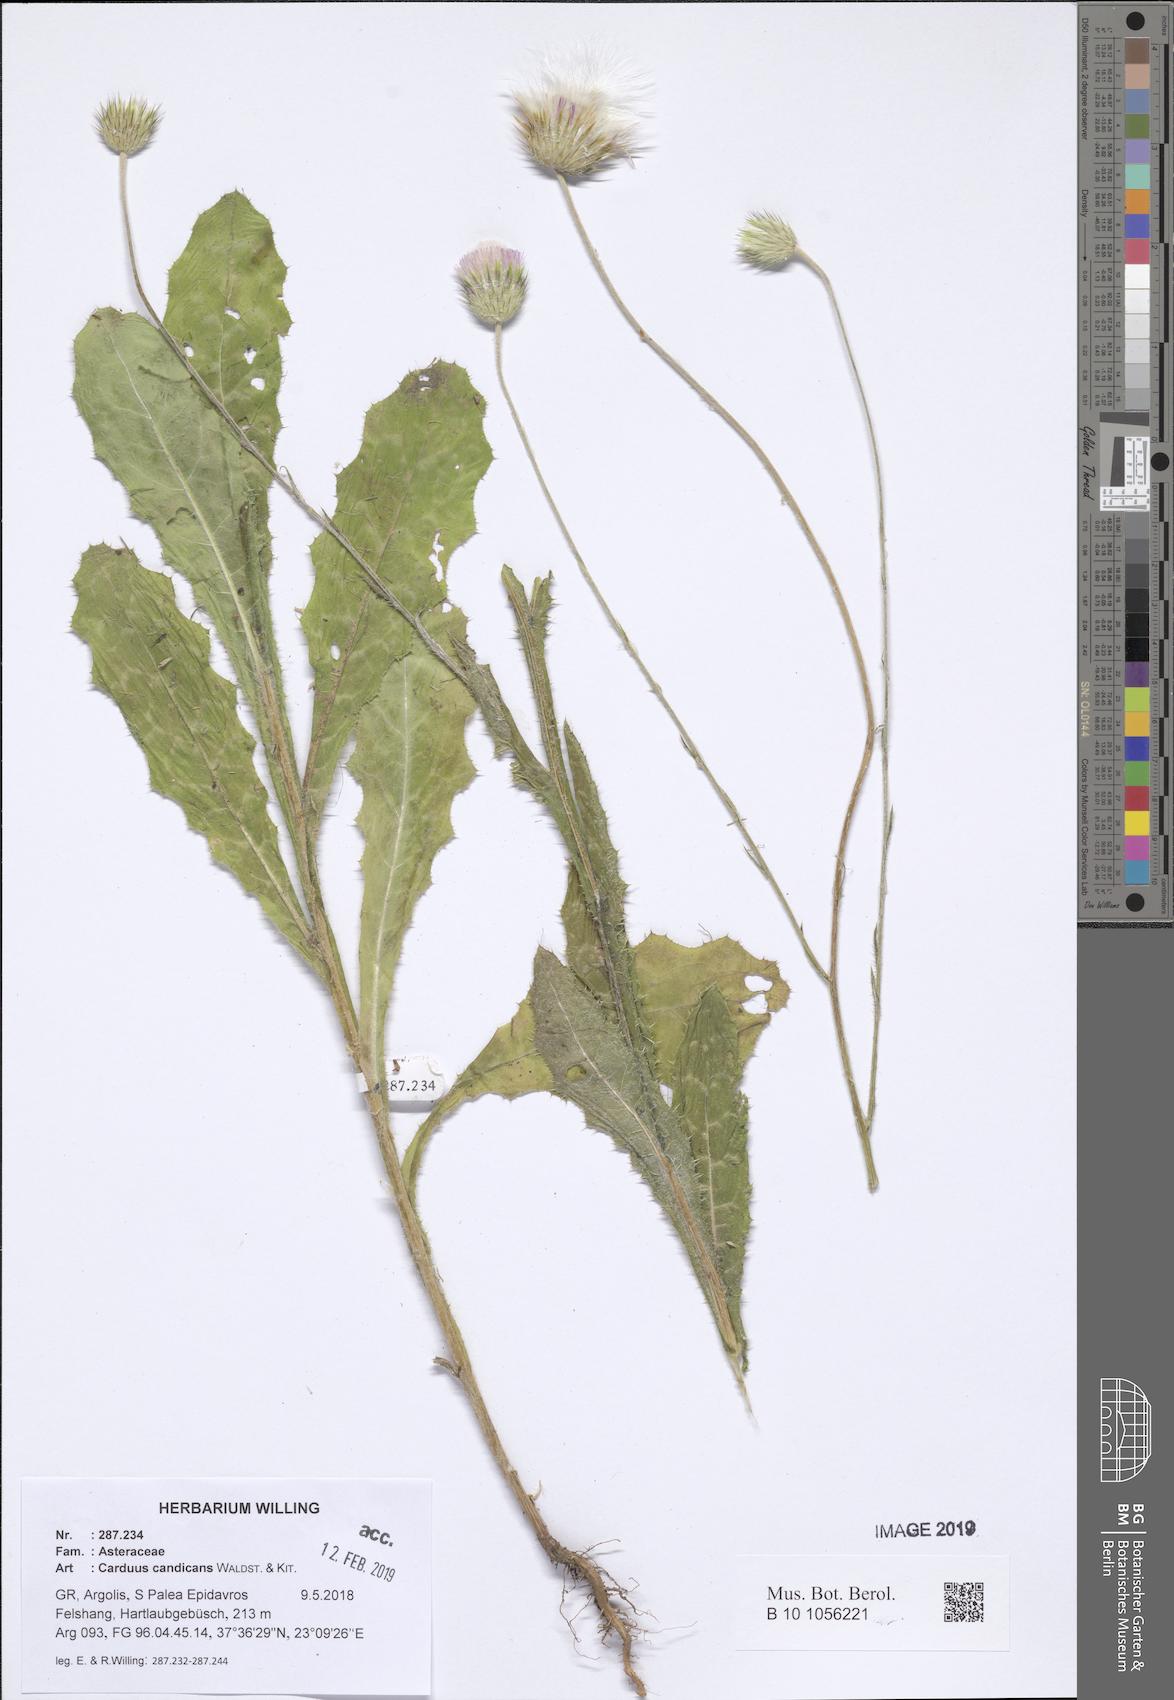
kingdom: Plantae
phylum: Tracheophyta
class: Magnoliopsida
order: Asterales
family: Asteraceae
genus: Carduus
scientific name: Carduus candicans
